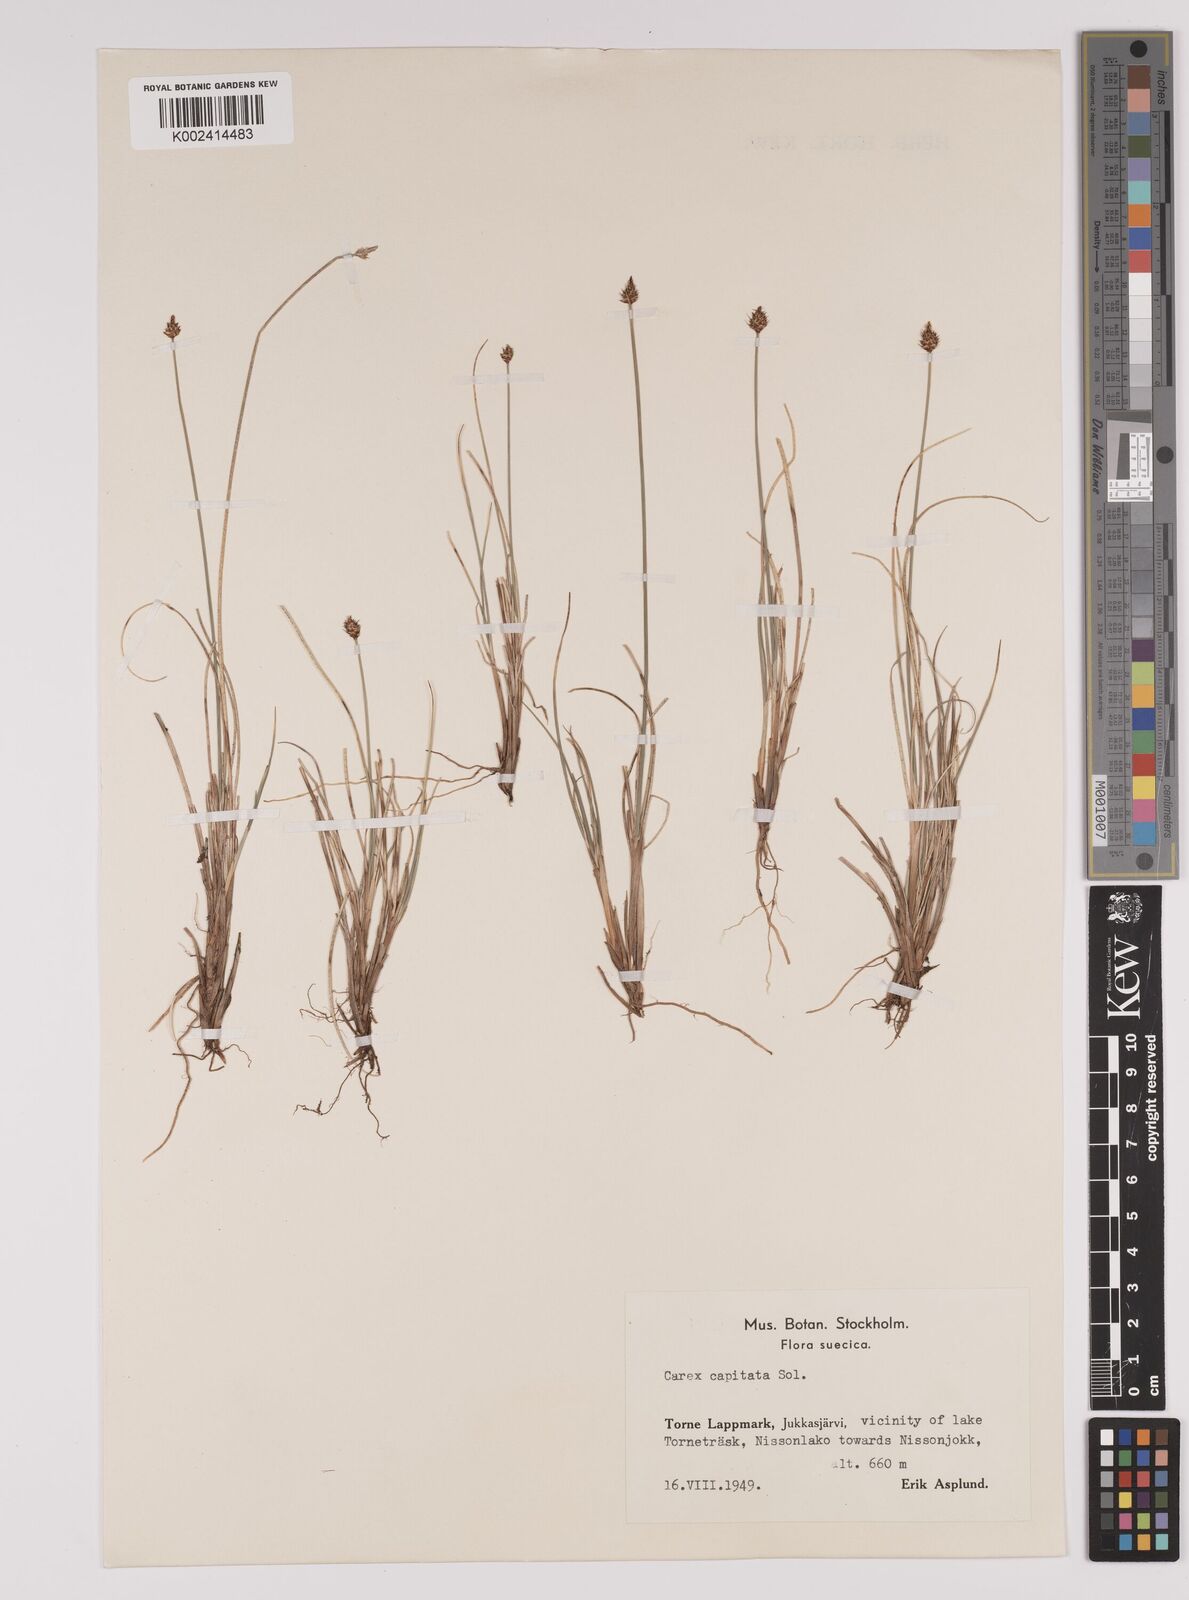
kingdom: Plantae
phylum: Tracheophyta
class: Liliopsida
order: Poales
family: Cyperaceae
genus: Carex
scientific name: Carex capitata
